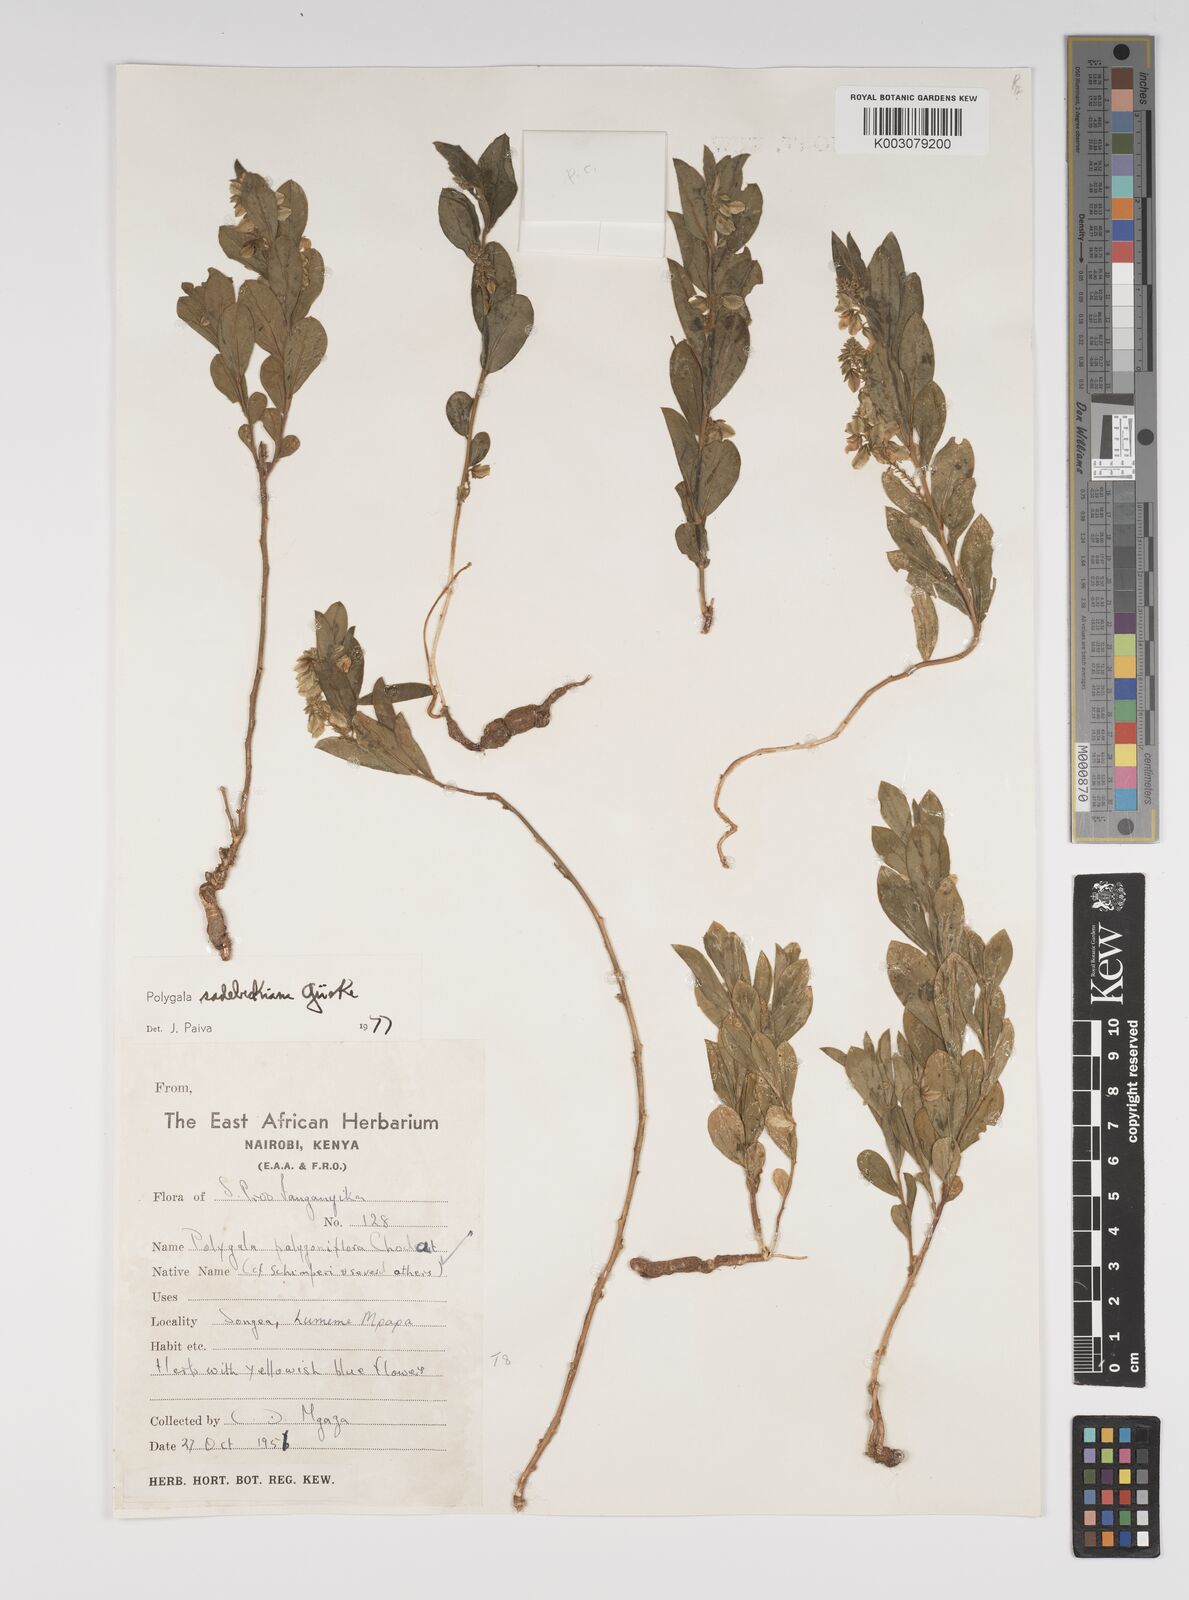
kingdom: Plantae
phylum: Tracheophyta
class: Magnoliopsida
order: Fabales
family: Polygalaceae
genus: Polygala
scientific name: Polygala sadebeckiana
